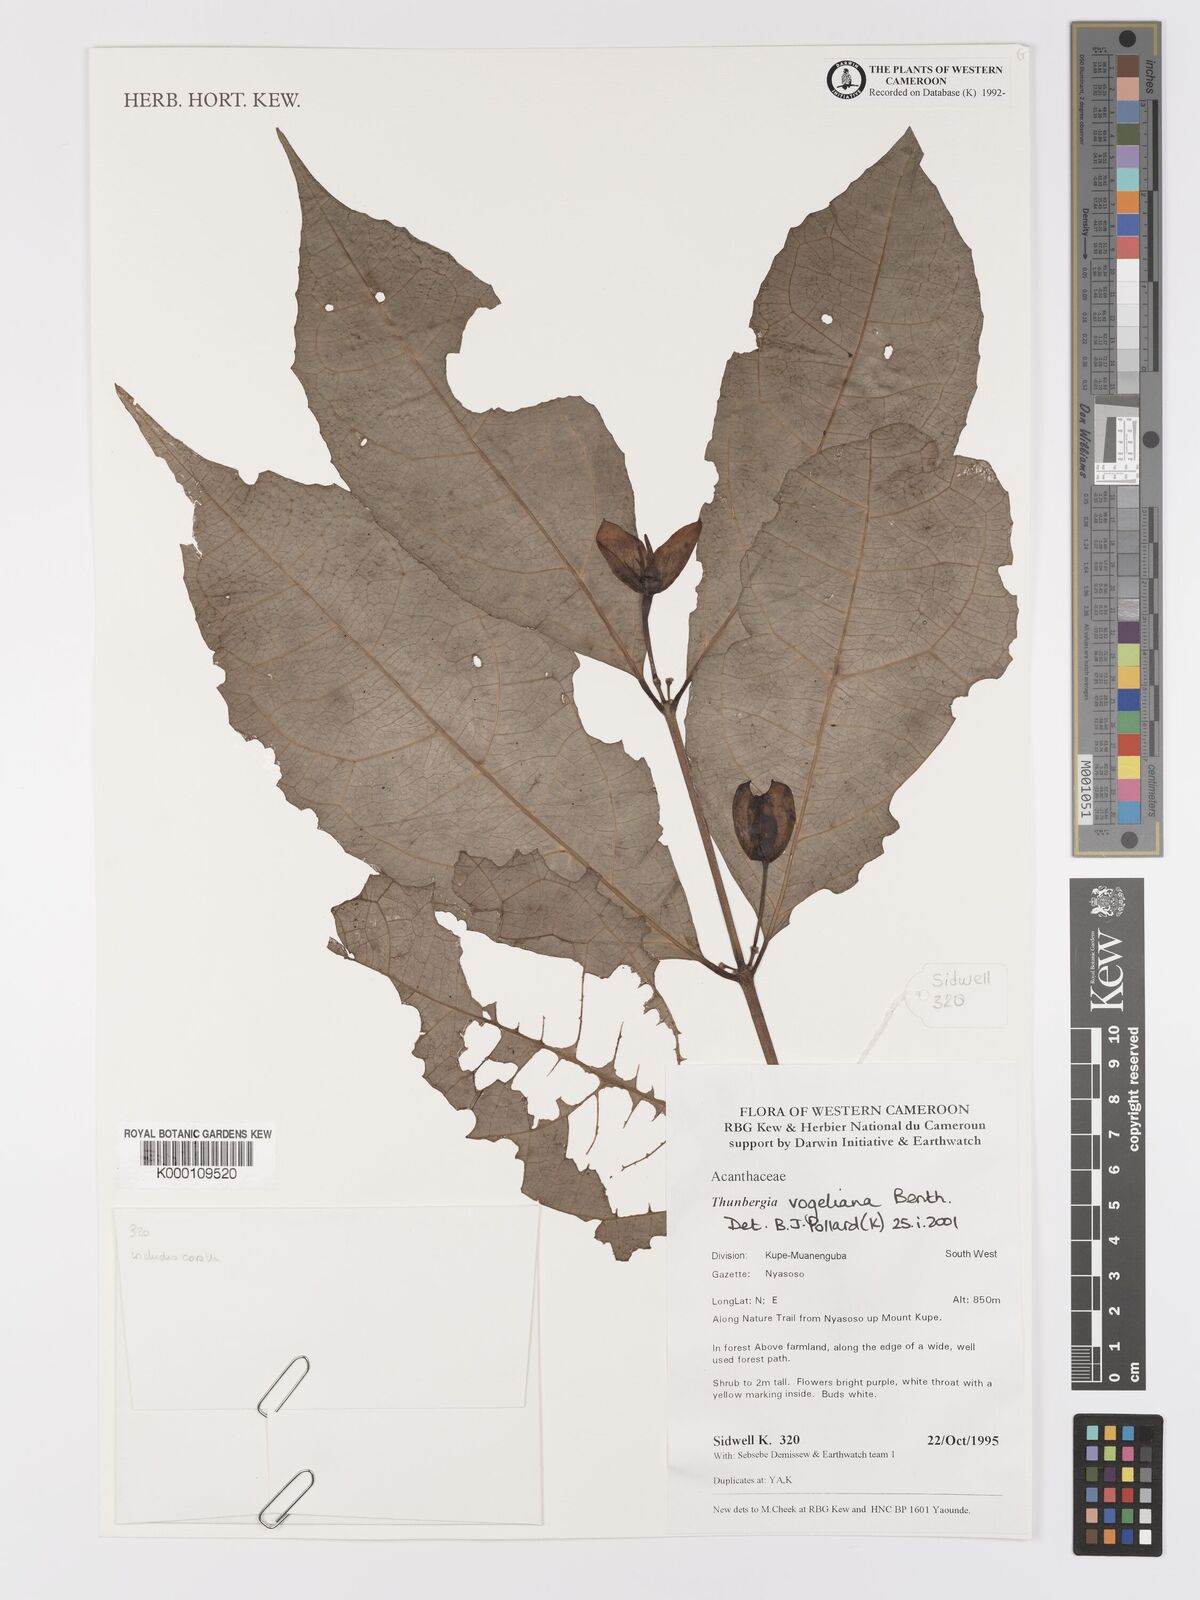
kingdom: Plantae
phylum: Tracheophyta
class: Magnoliopsida
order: Lamiales
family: Acanthaceae
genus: Thunbergia
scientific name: Thunbergia vogeliana
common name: Acanthaceae
